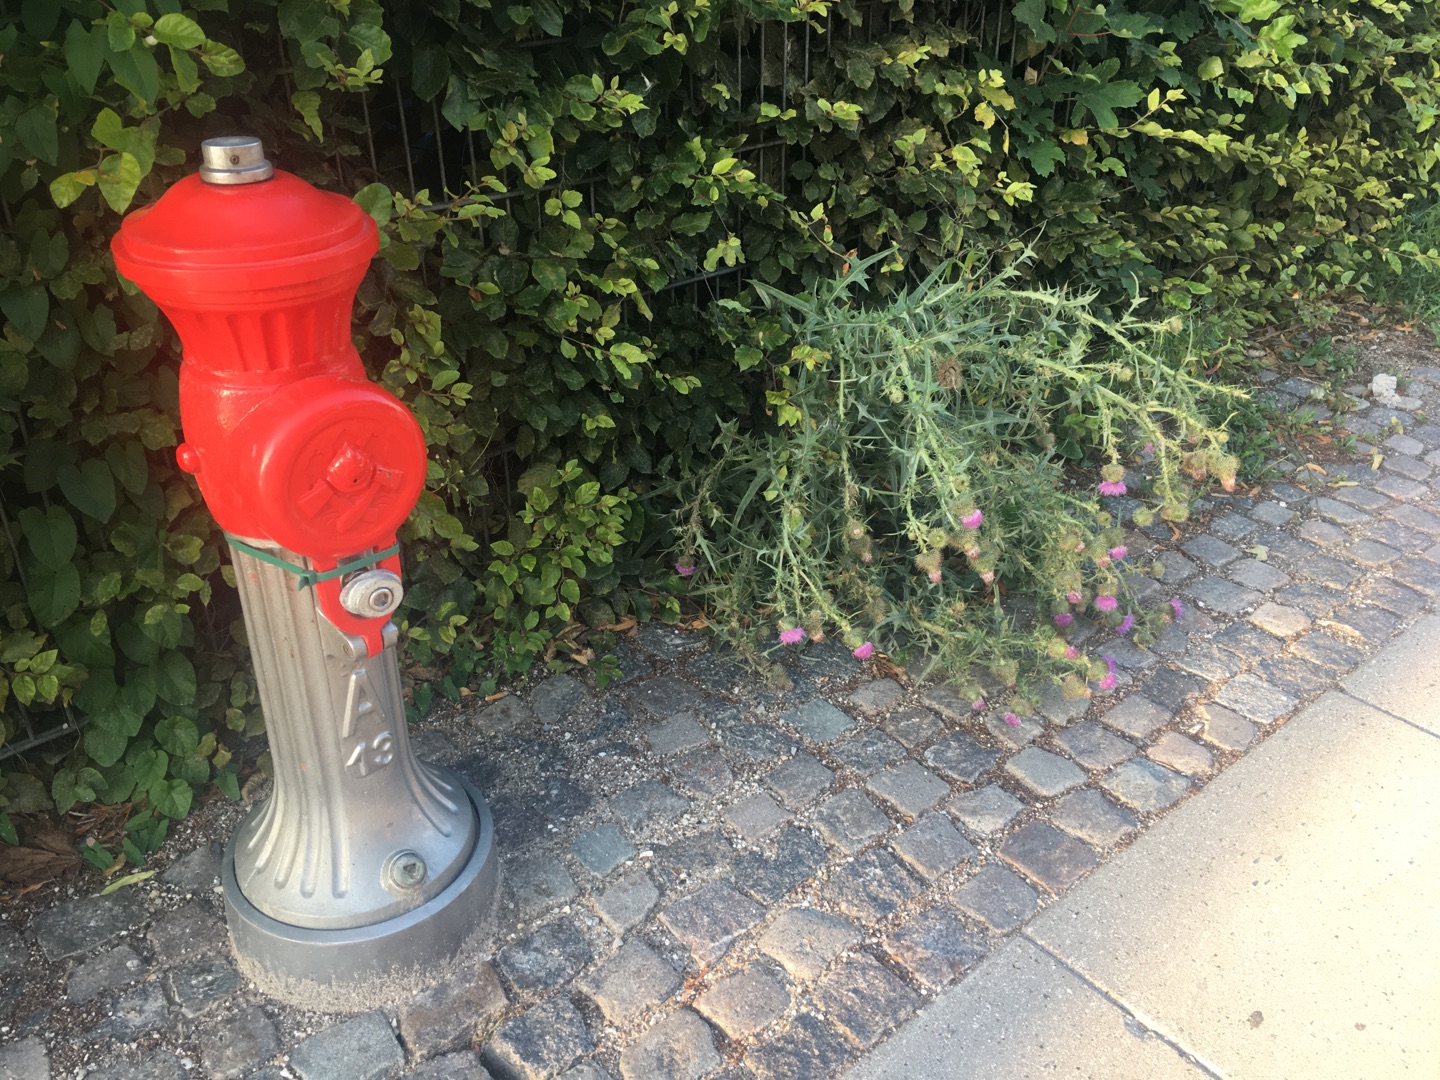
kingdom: Animalia
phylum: Arthropoda
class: Insecta
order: Coleoptera
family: Coccinellidae
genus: Psyllobora
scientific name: Psyllobora vigintiduopunctata
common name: Toogtyveplettet mariehøne
